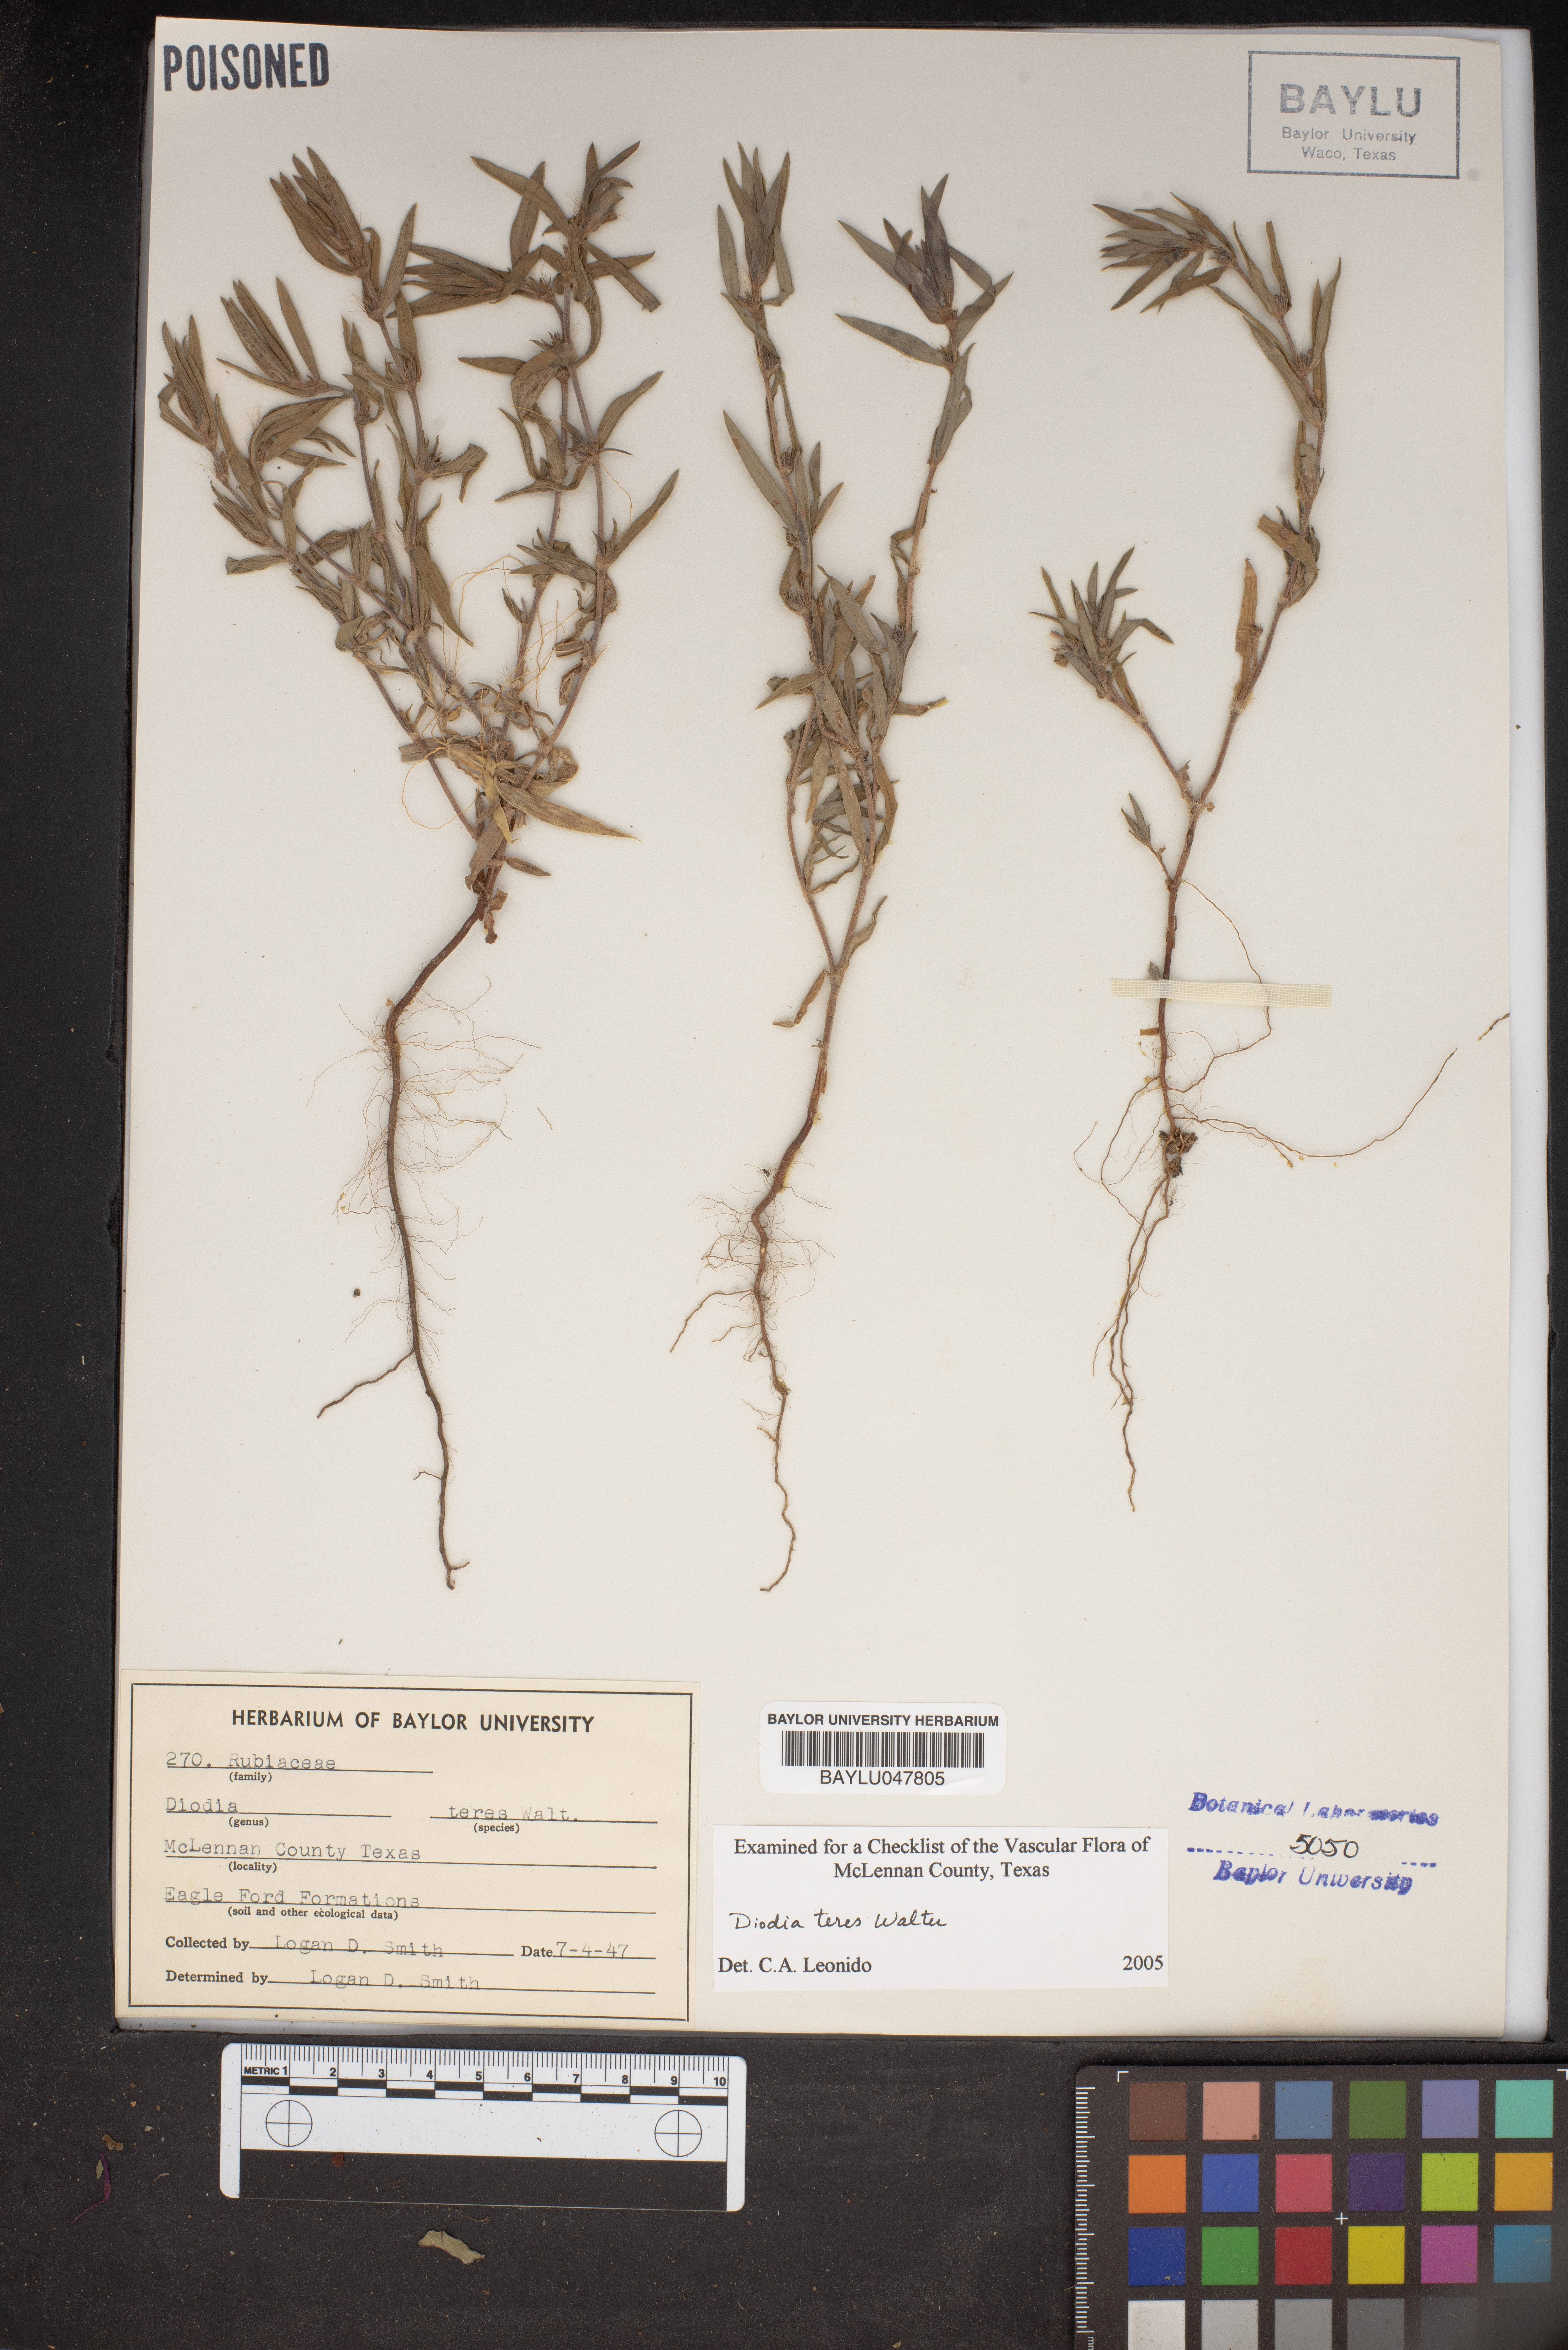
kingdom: Plantae
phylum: Tracheophyta
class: Magnoliopsida
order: Gentianales
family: Rubiaceae
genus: Hexasepalum
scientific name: Hexasepalum teres
